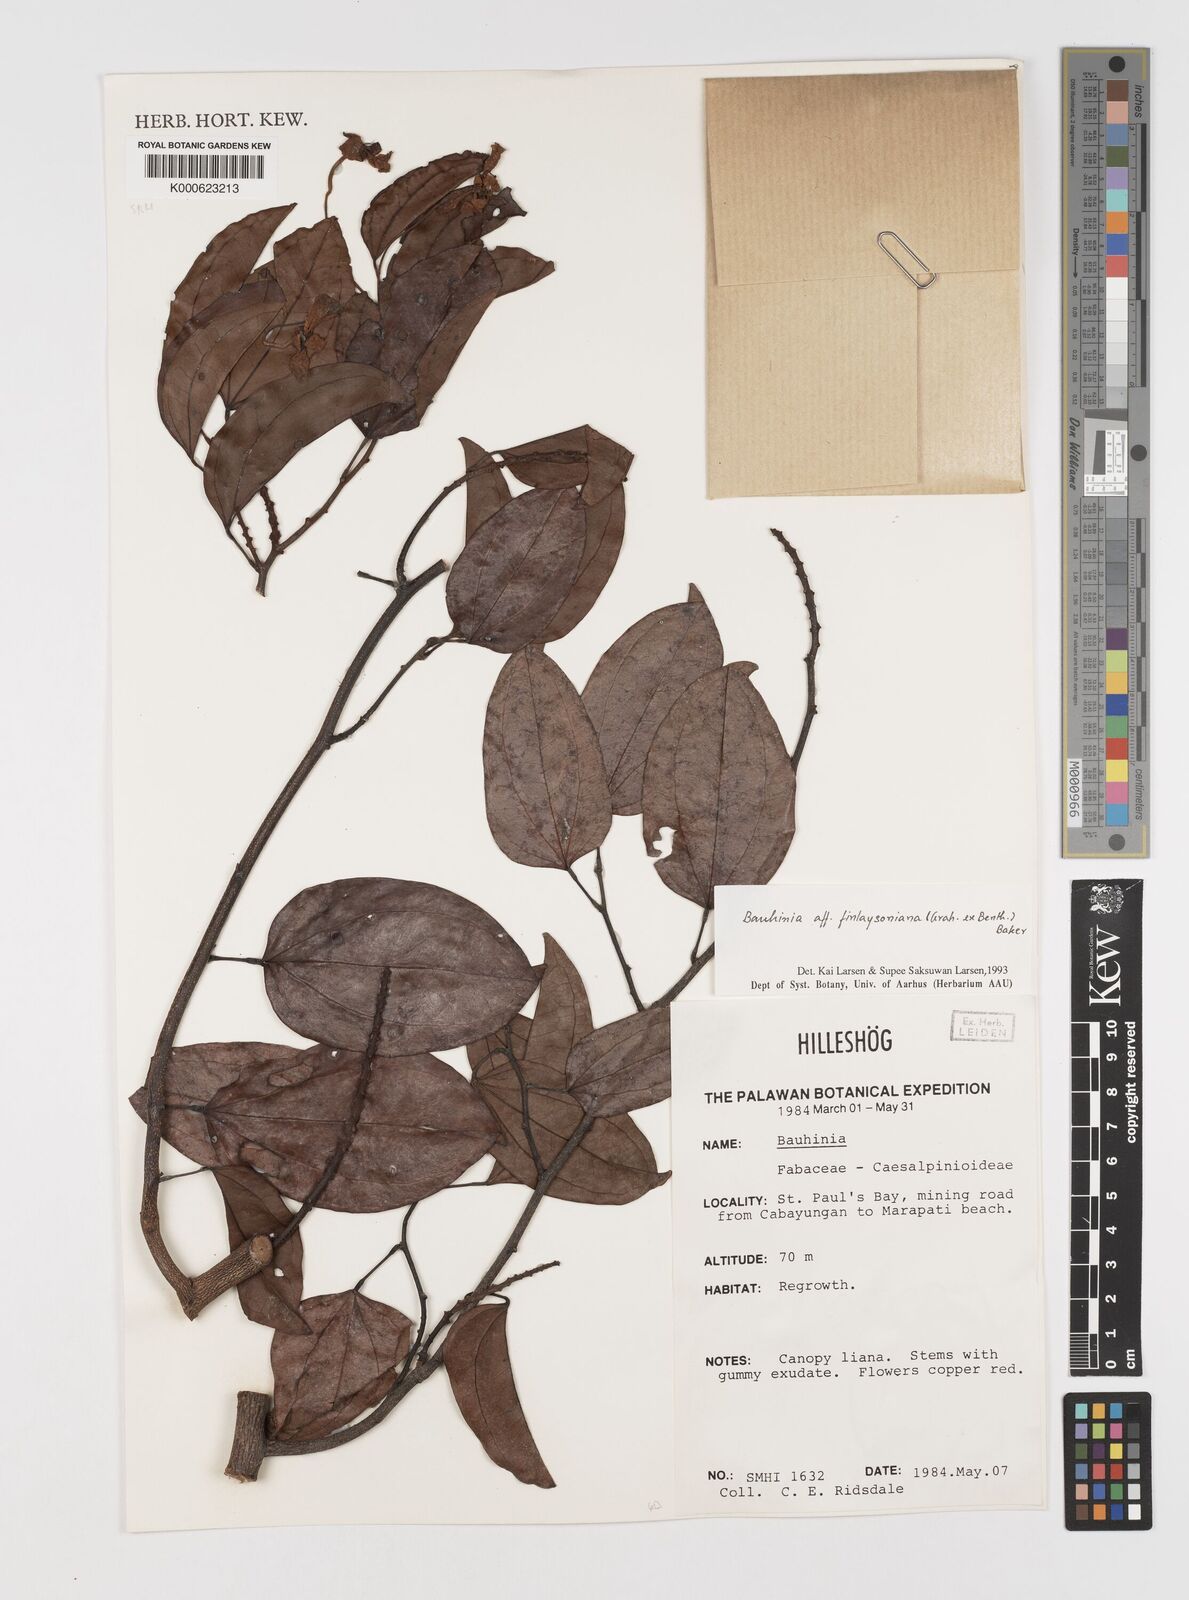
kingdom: Plantae
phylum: Tracheophyta
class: Magnoliopsida
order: Fabales
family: Fabaceae
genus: Phanera
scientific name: Phanera finlaysoniana
